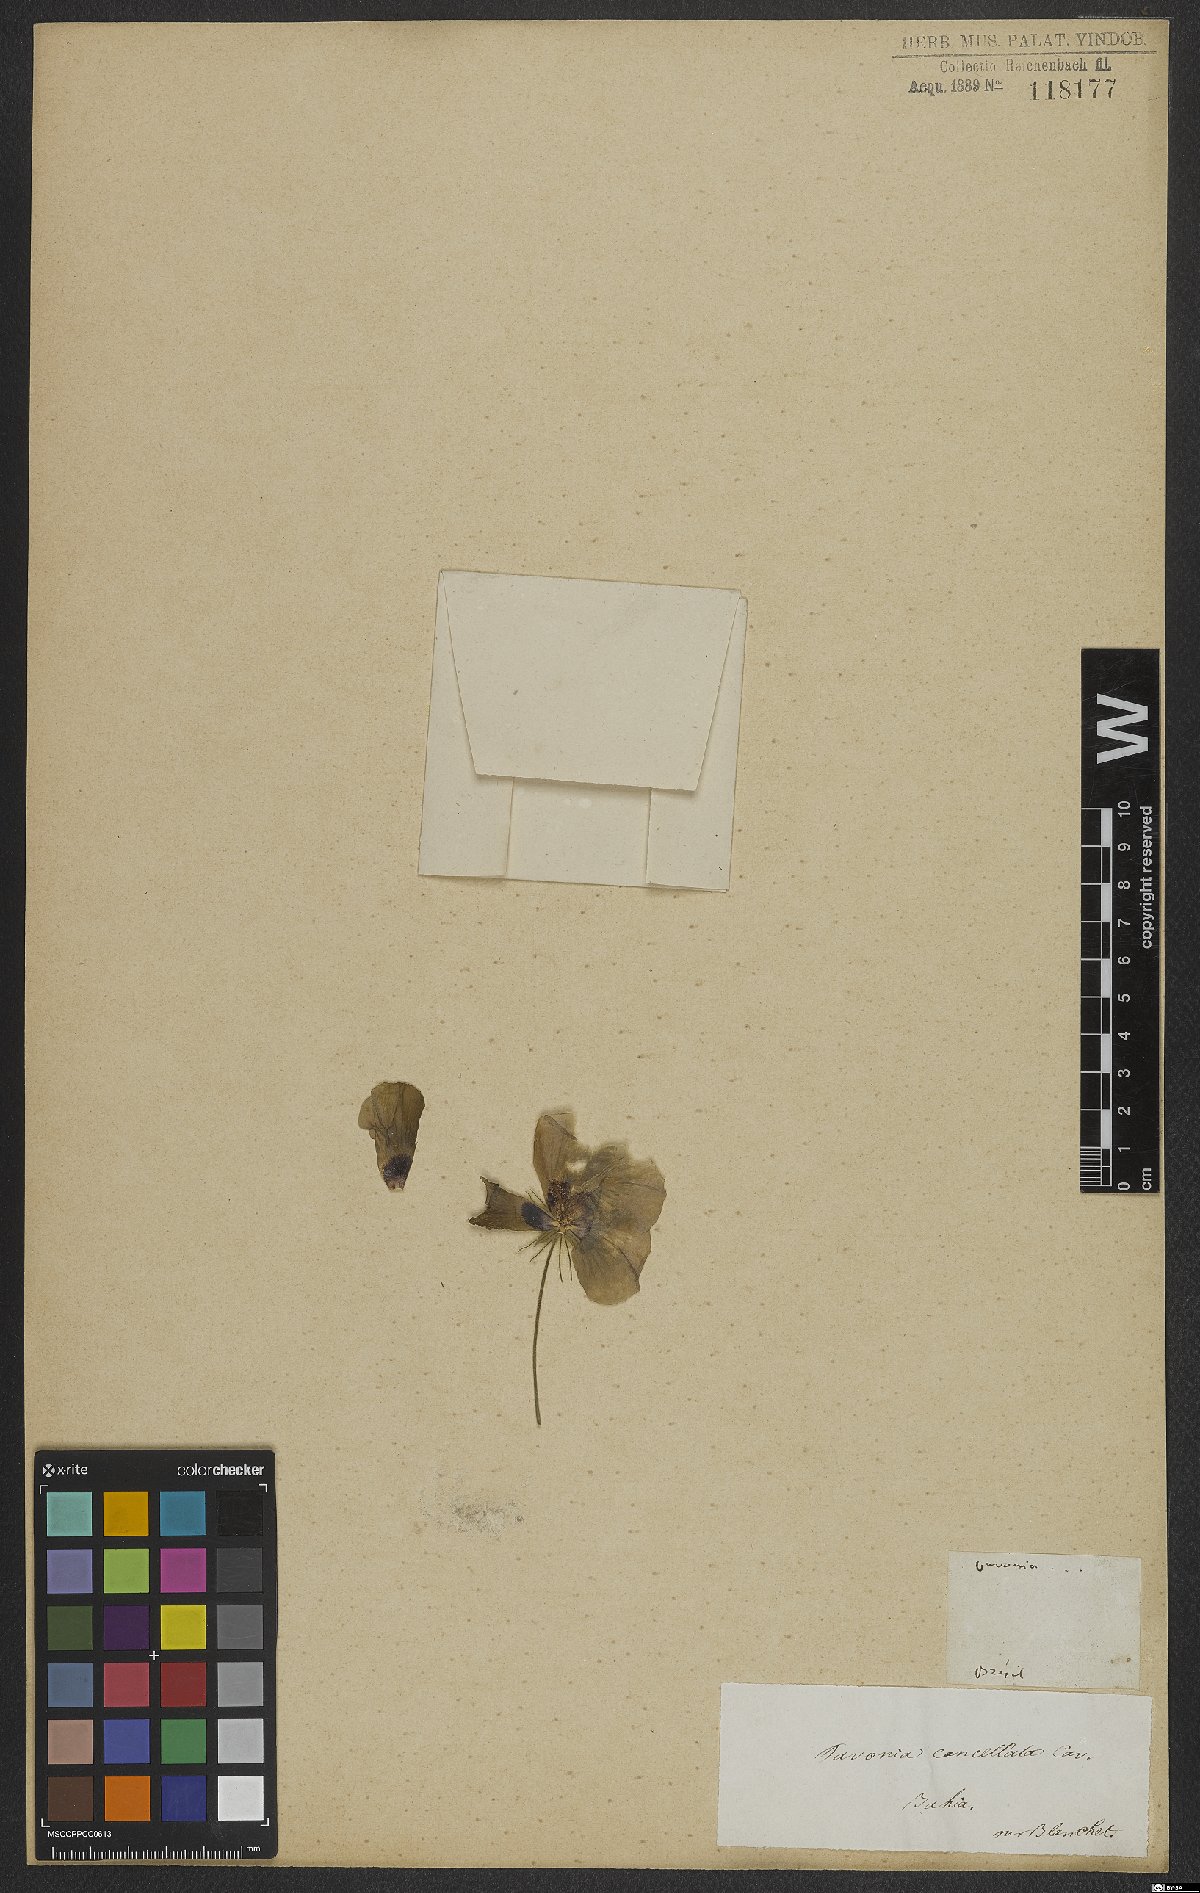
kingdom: Plantae
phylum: Tracheophyta
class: Magnoliopsida
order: Malvales
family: Malvaceae
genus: Pavonia
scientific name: Pavonia cancellata
